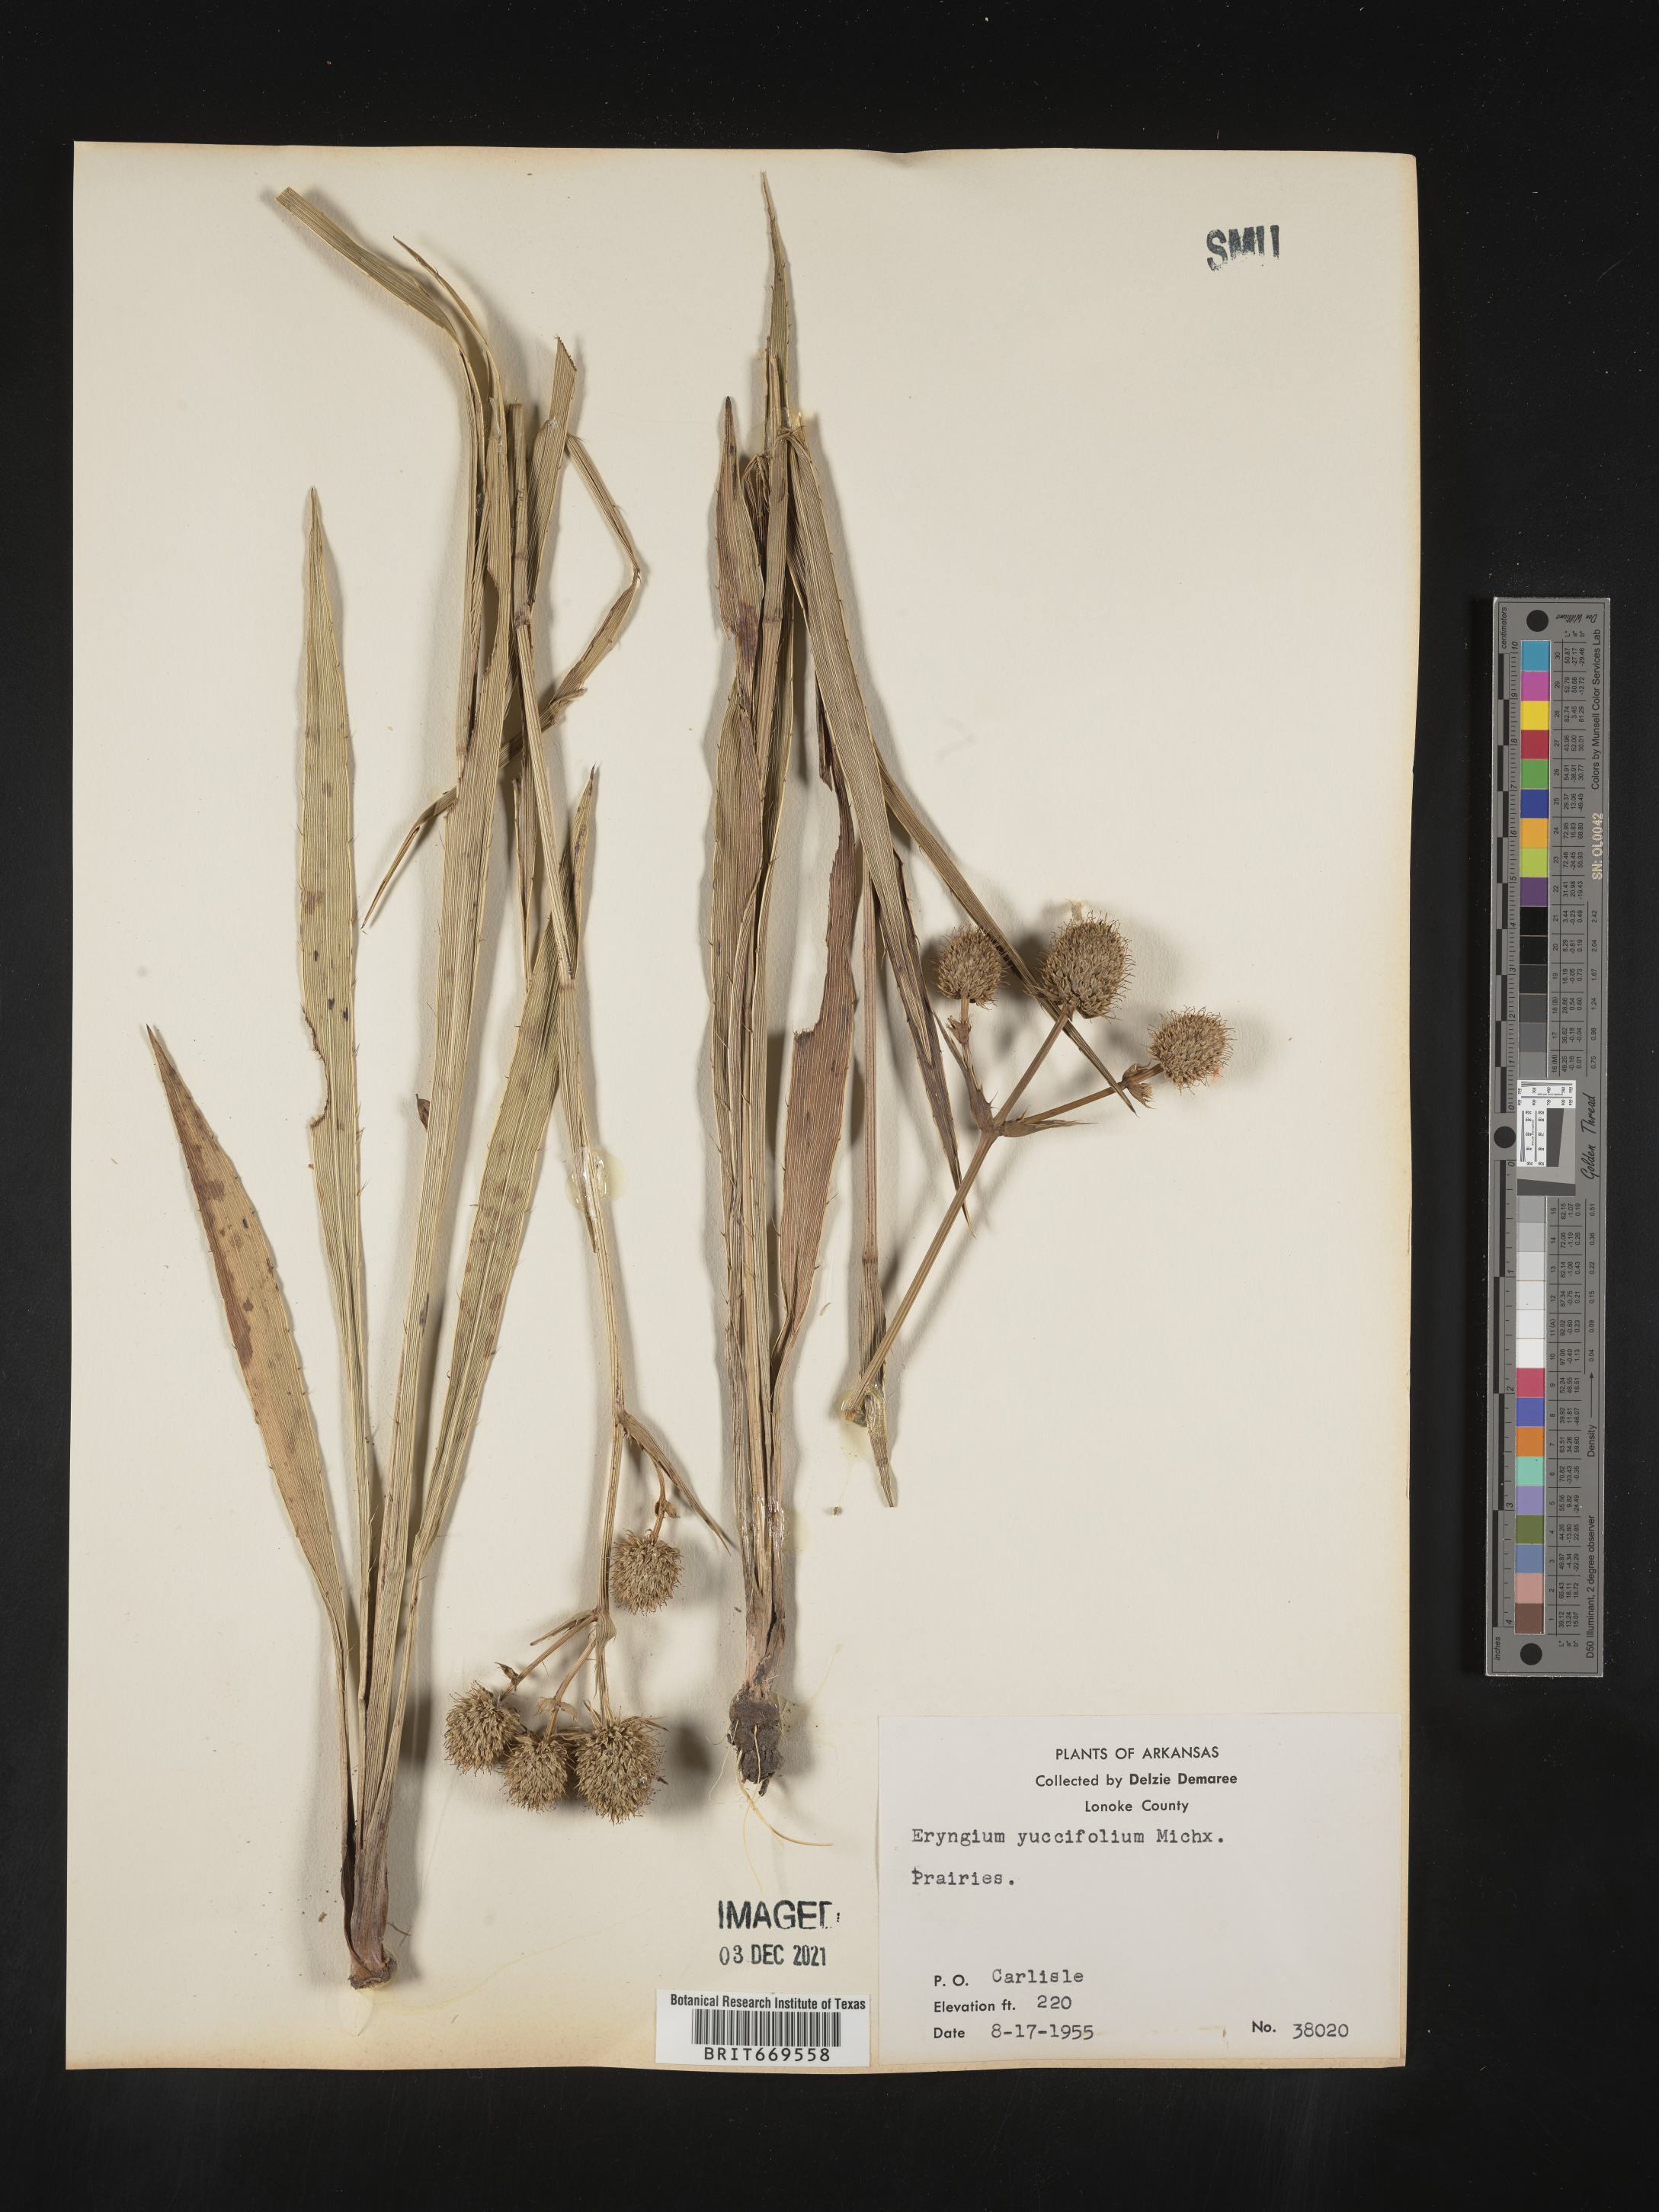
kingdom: Plantae
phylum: Tracheophyta
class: Magnoliopsida
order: Apiales
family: Apiaceae
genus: Eryngium
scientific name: Eryngium yuccifolium
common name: Button eryngo
